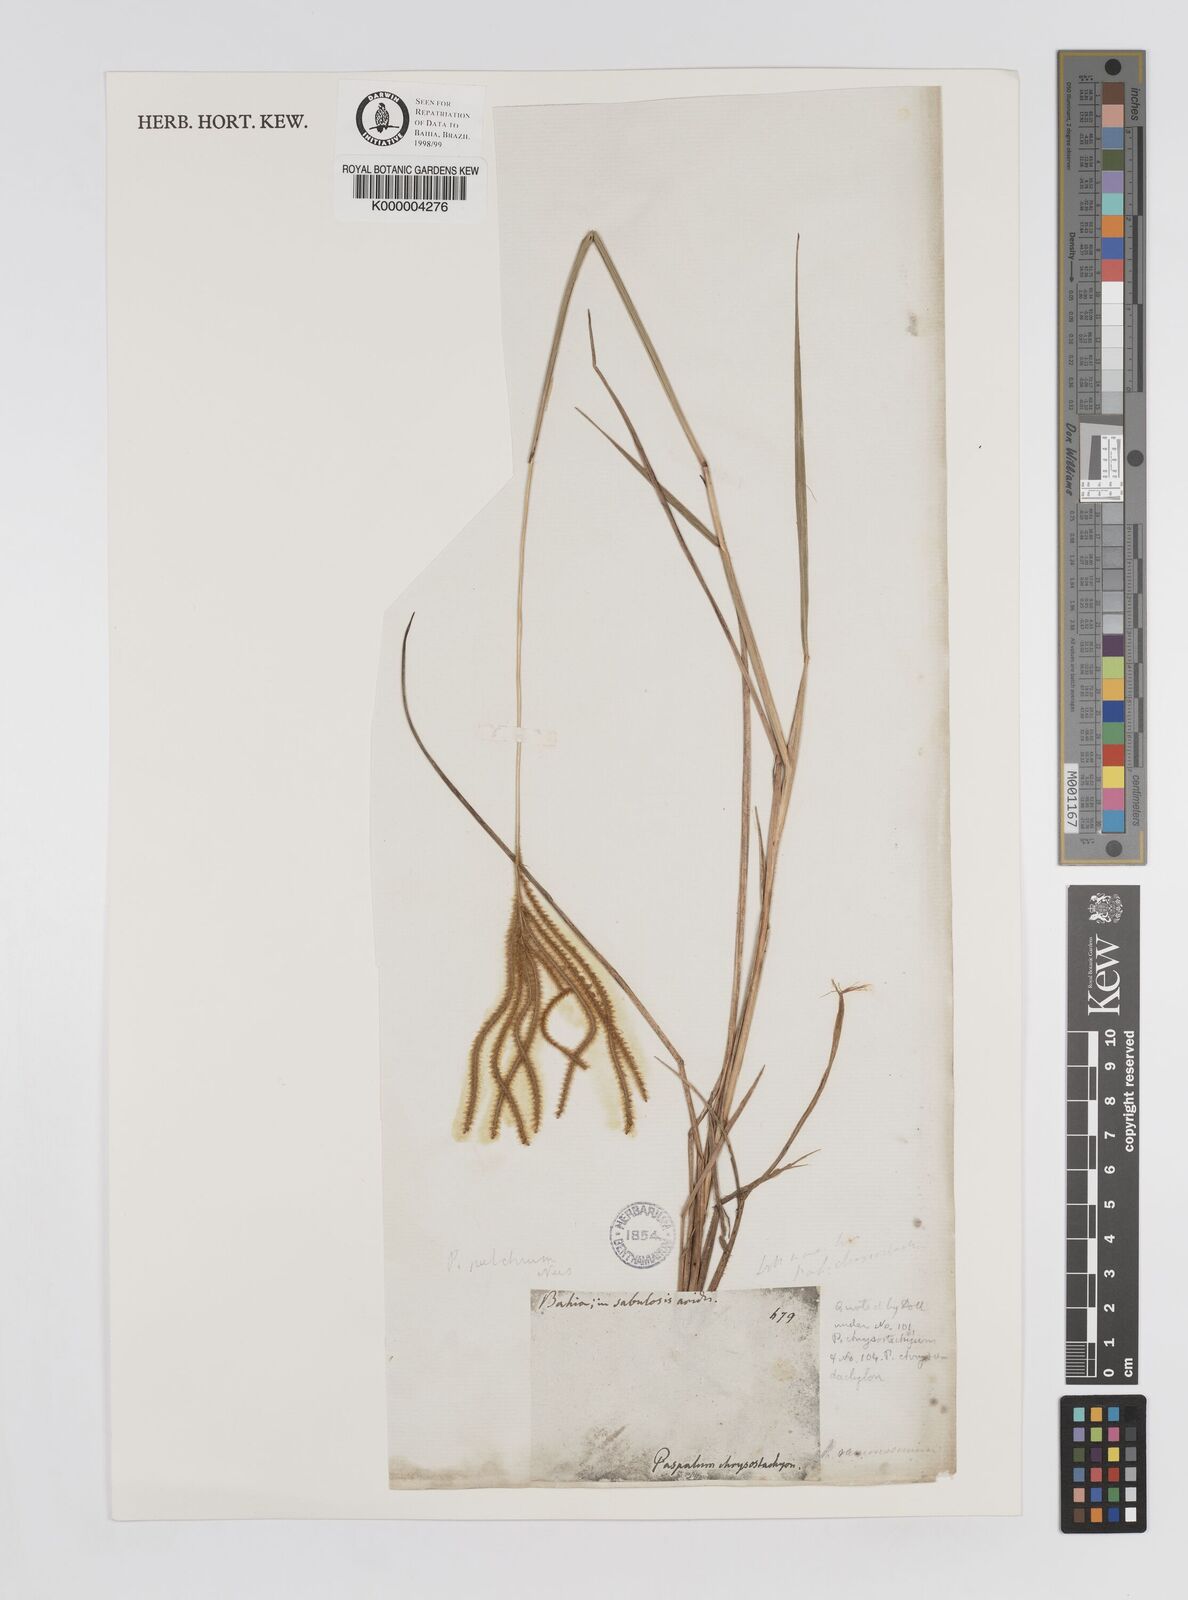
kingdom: Plantae
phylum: Tracheophyta
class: Liliopsida
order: Poales
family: Poaceae
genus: Axonopus
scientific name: Axonopus aureus
